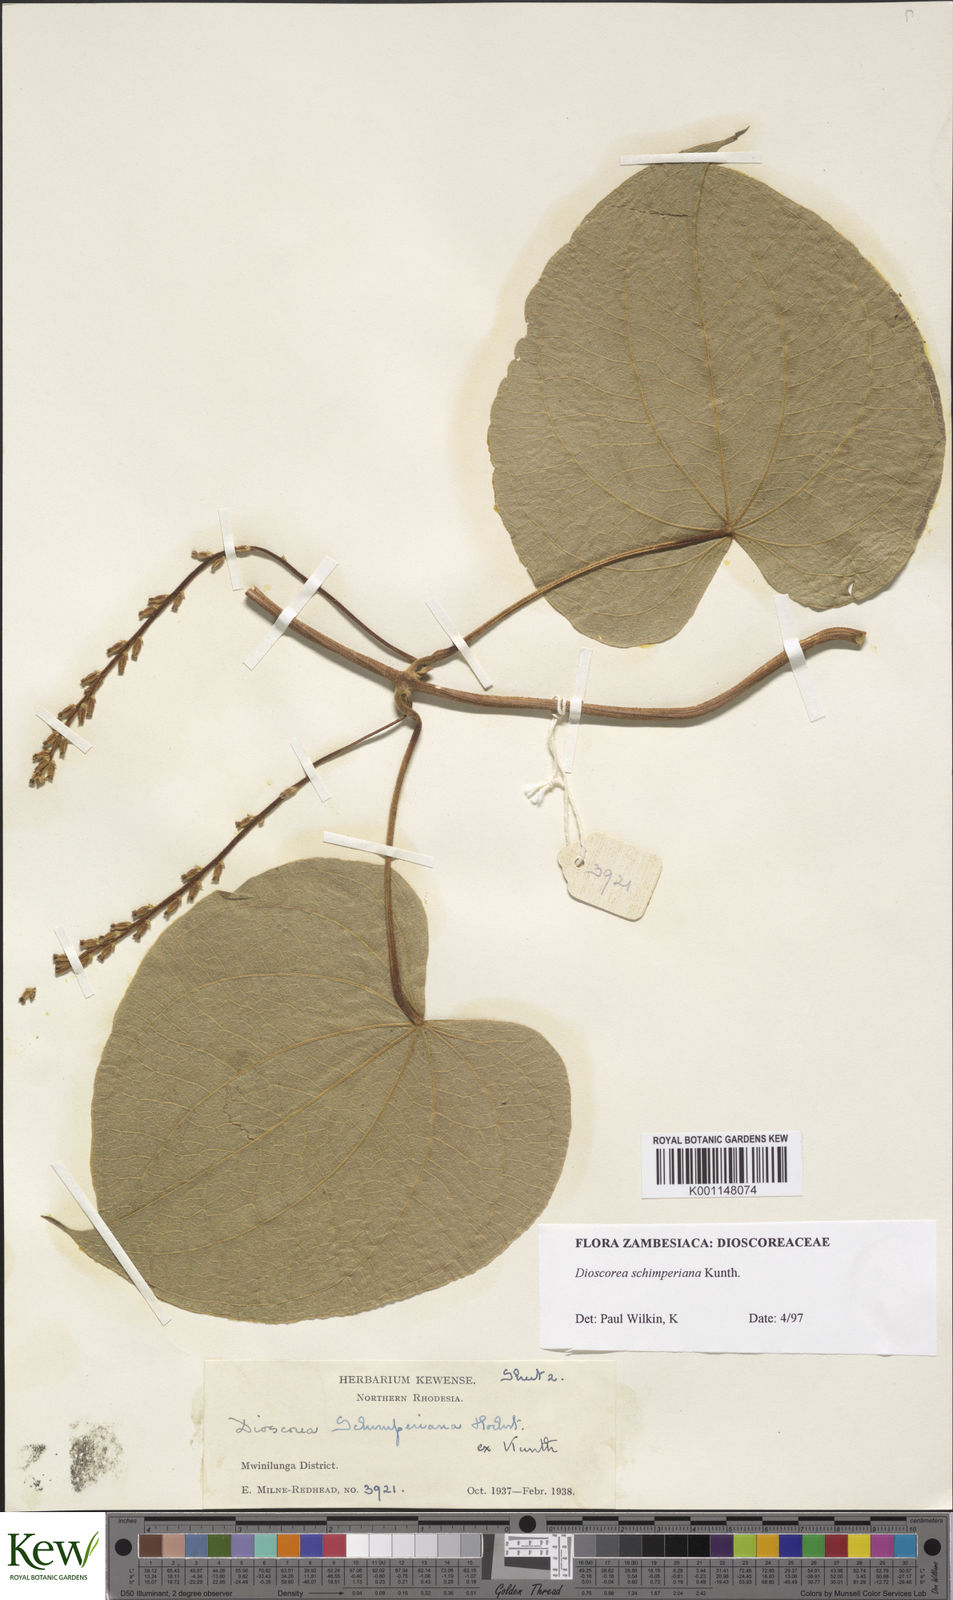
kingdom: Plantae
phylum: Tracheophyta
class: Liliopsida
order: Dioscoreales
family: Dioscoreaceae
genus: Dioscorea
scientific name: Dioscorea schimperiana
